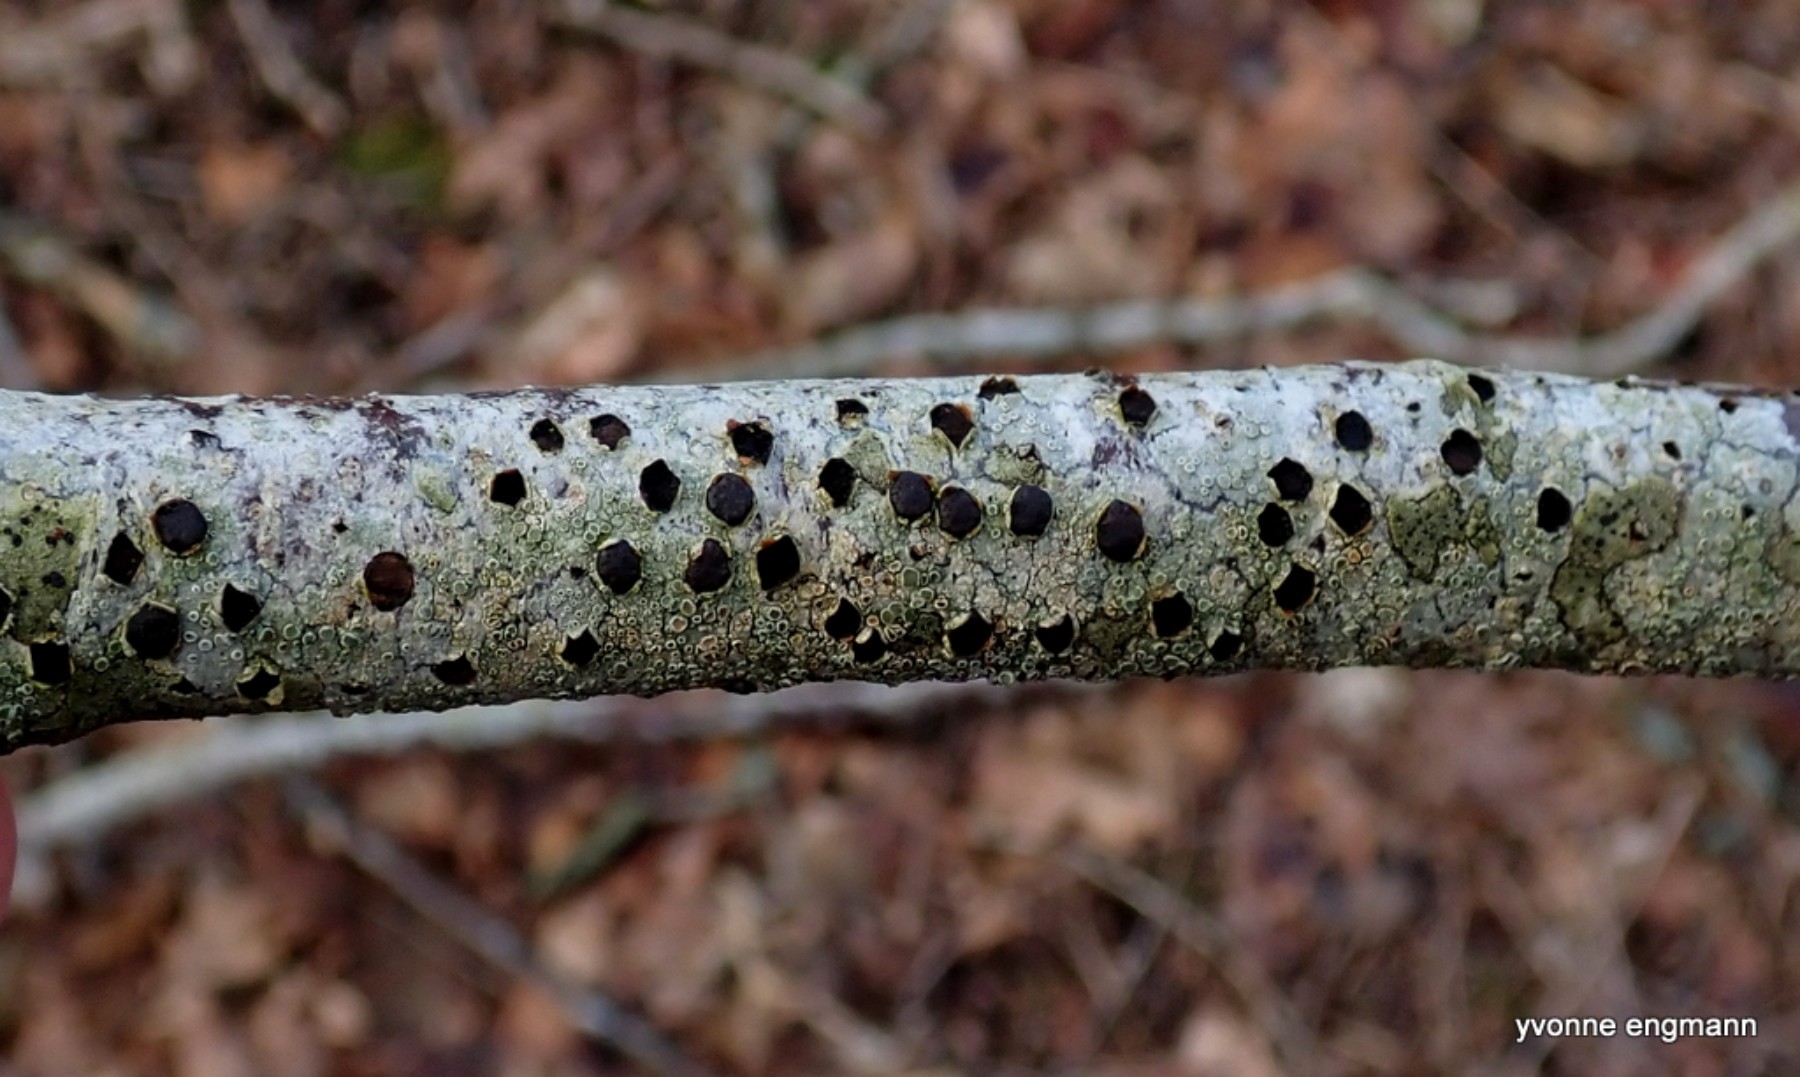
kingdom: Fungi
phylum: Ascomycota
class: Sordariomycetes
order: Xylariales
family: Diatrypaceae
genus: Diatrype
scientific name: Diatrype disciformis
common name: kant-kulskorpe
